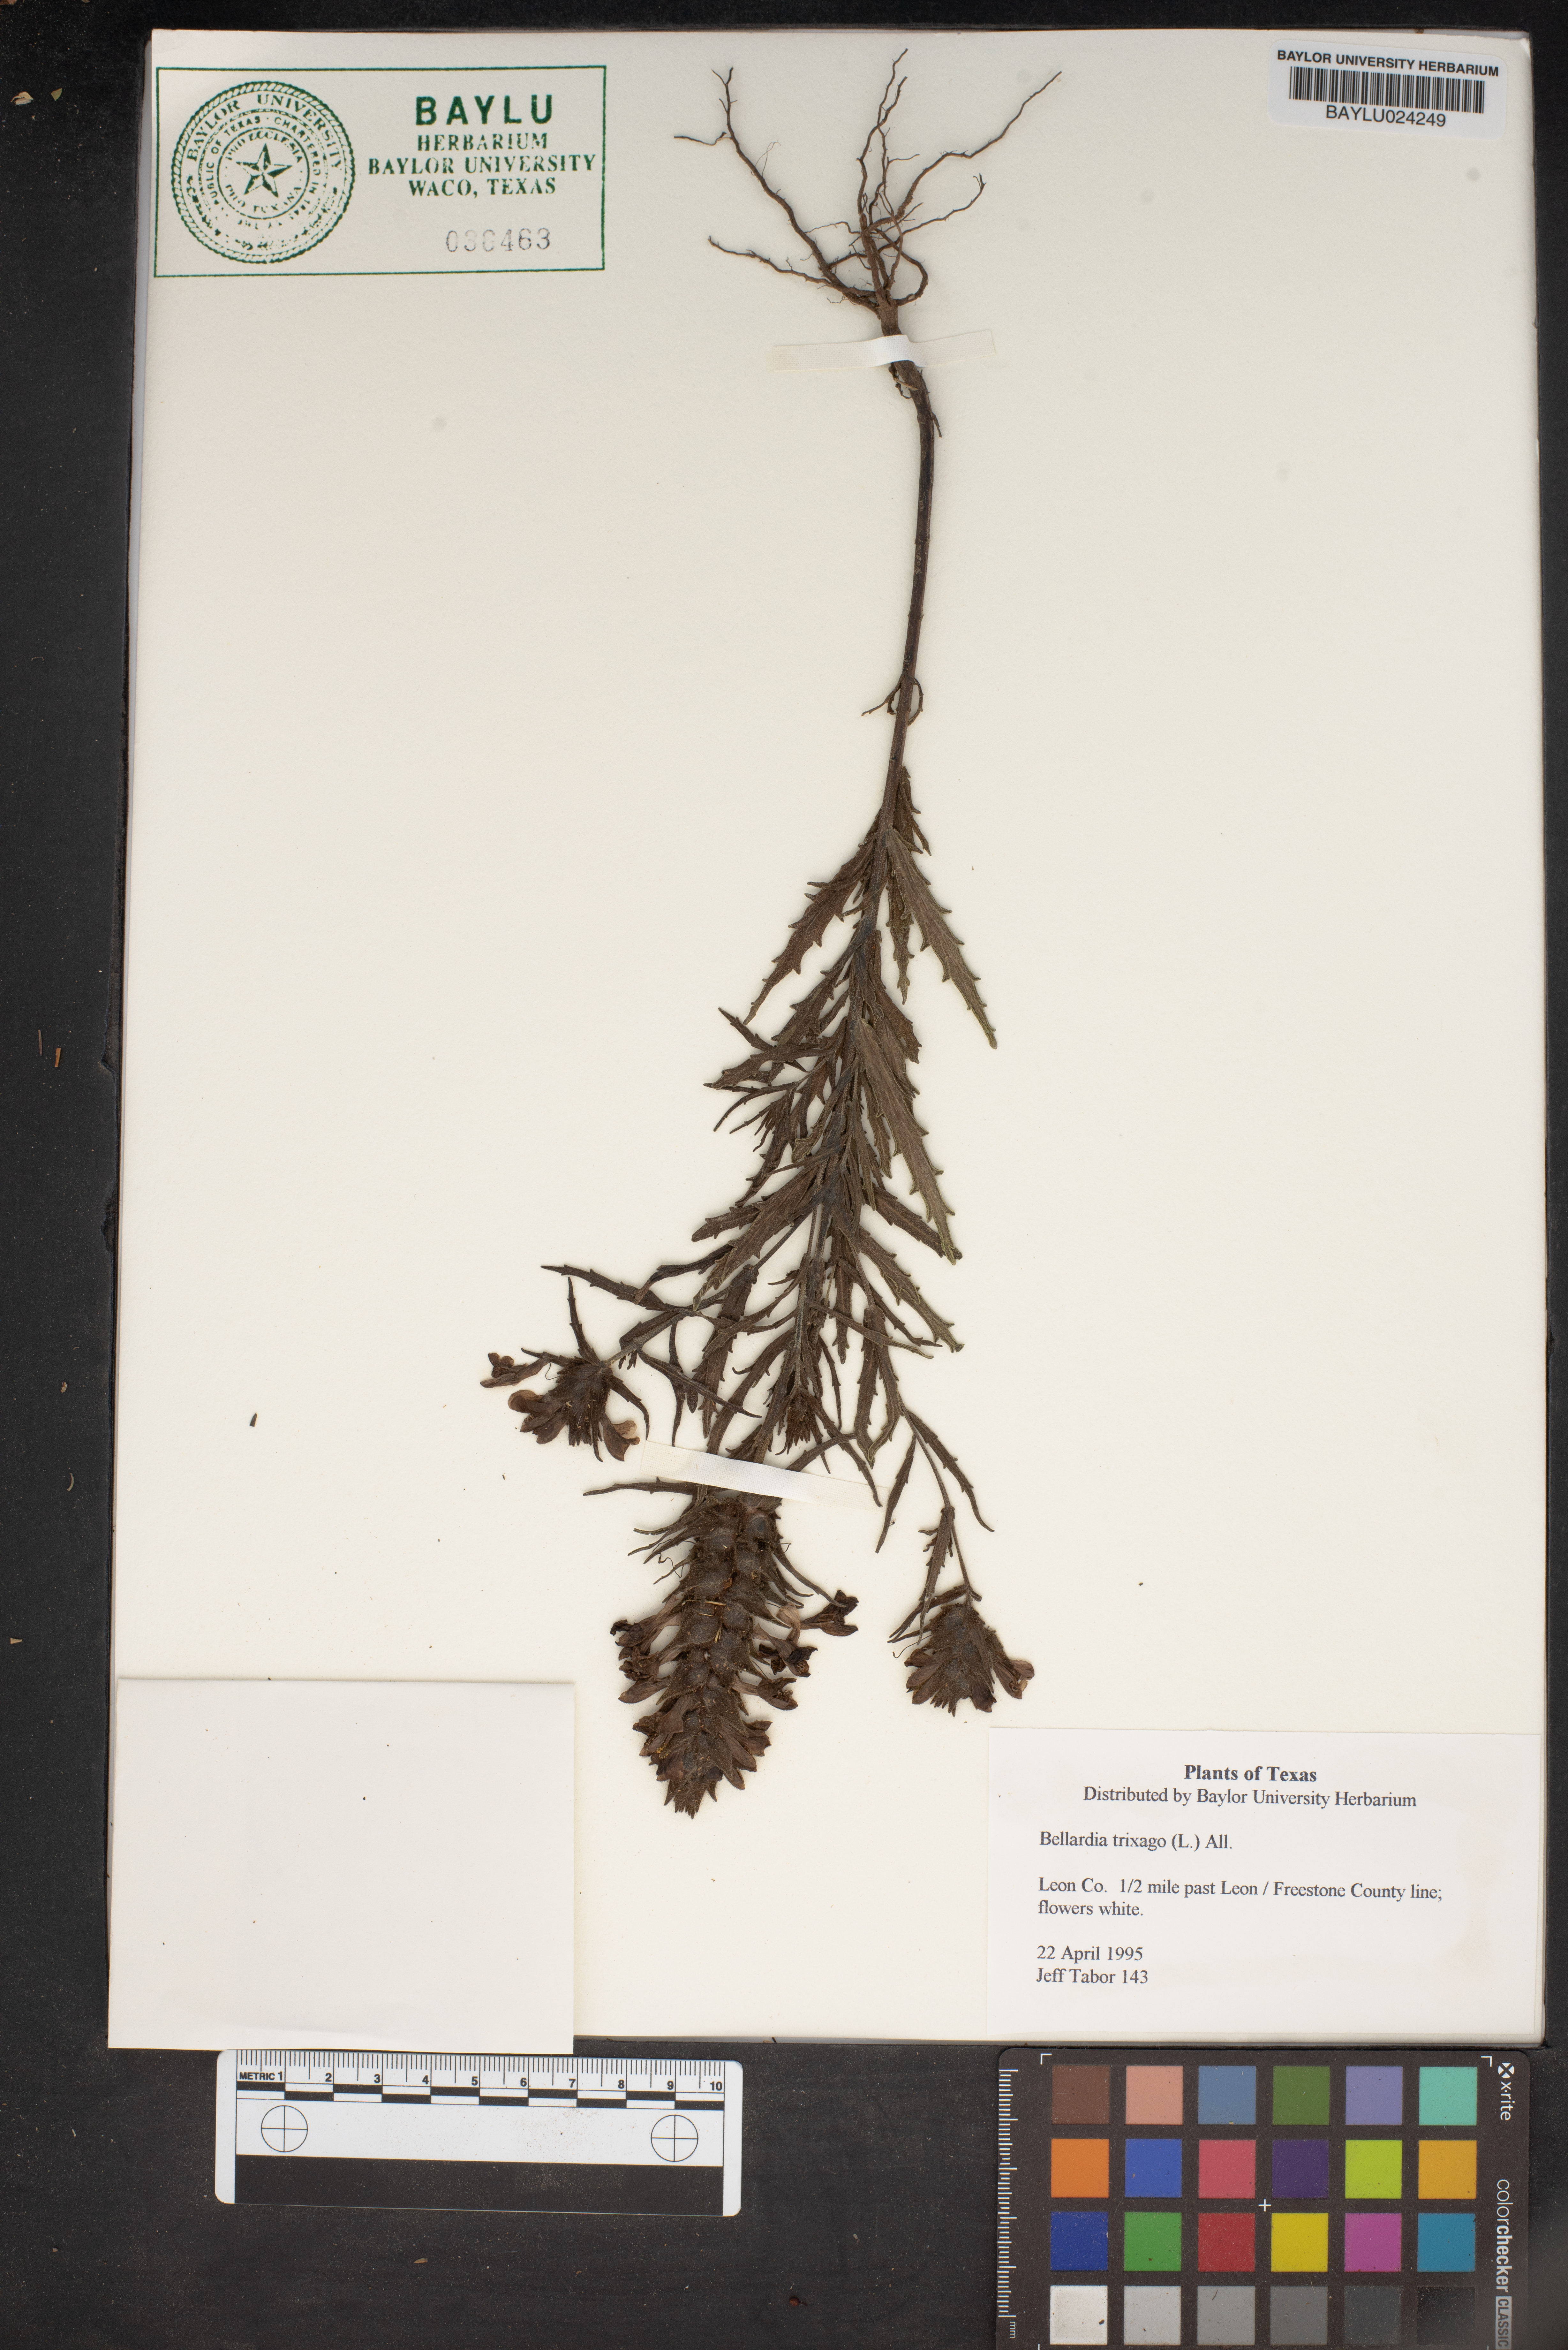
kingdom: Plantae
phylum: Tracheophyta
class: Magnoliopsida
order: Lamiales
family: Orobanchaceae
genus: Bellardia
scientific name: Bellardia trixago
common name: Mediterranean lineseed
